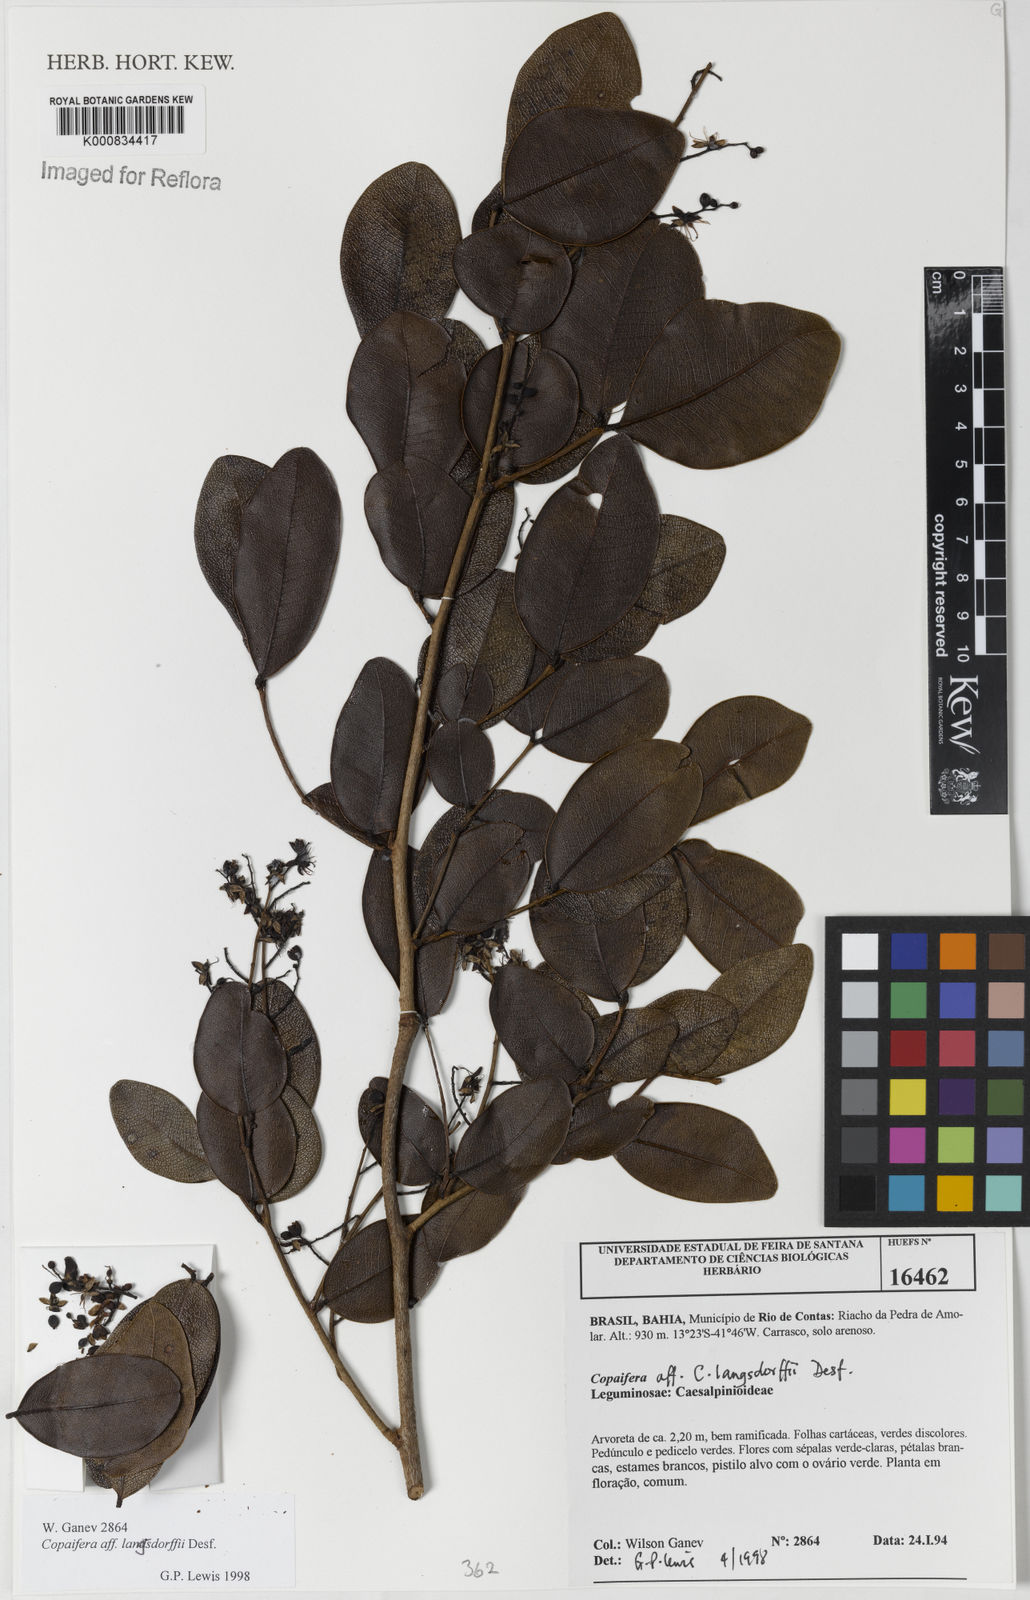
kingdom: Plantae
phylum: Tracheophyta
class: Magnoliopsida
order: Fabales
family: Fabaceae
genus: Copaifera
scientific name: Copaifera langsdorffii
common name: Brazilian diesel tree
